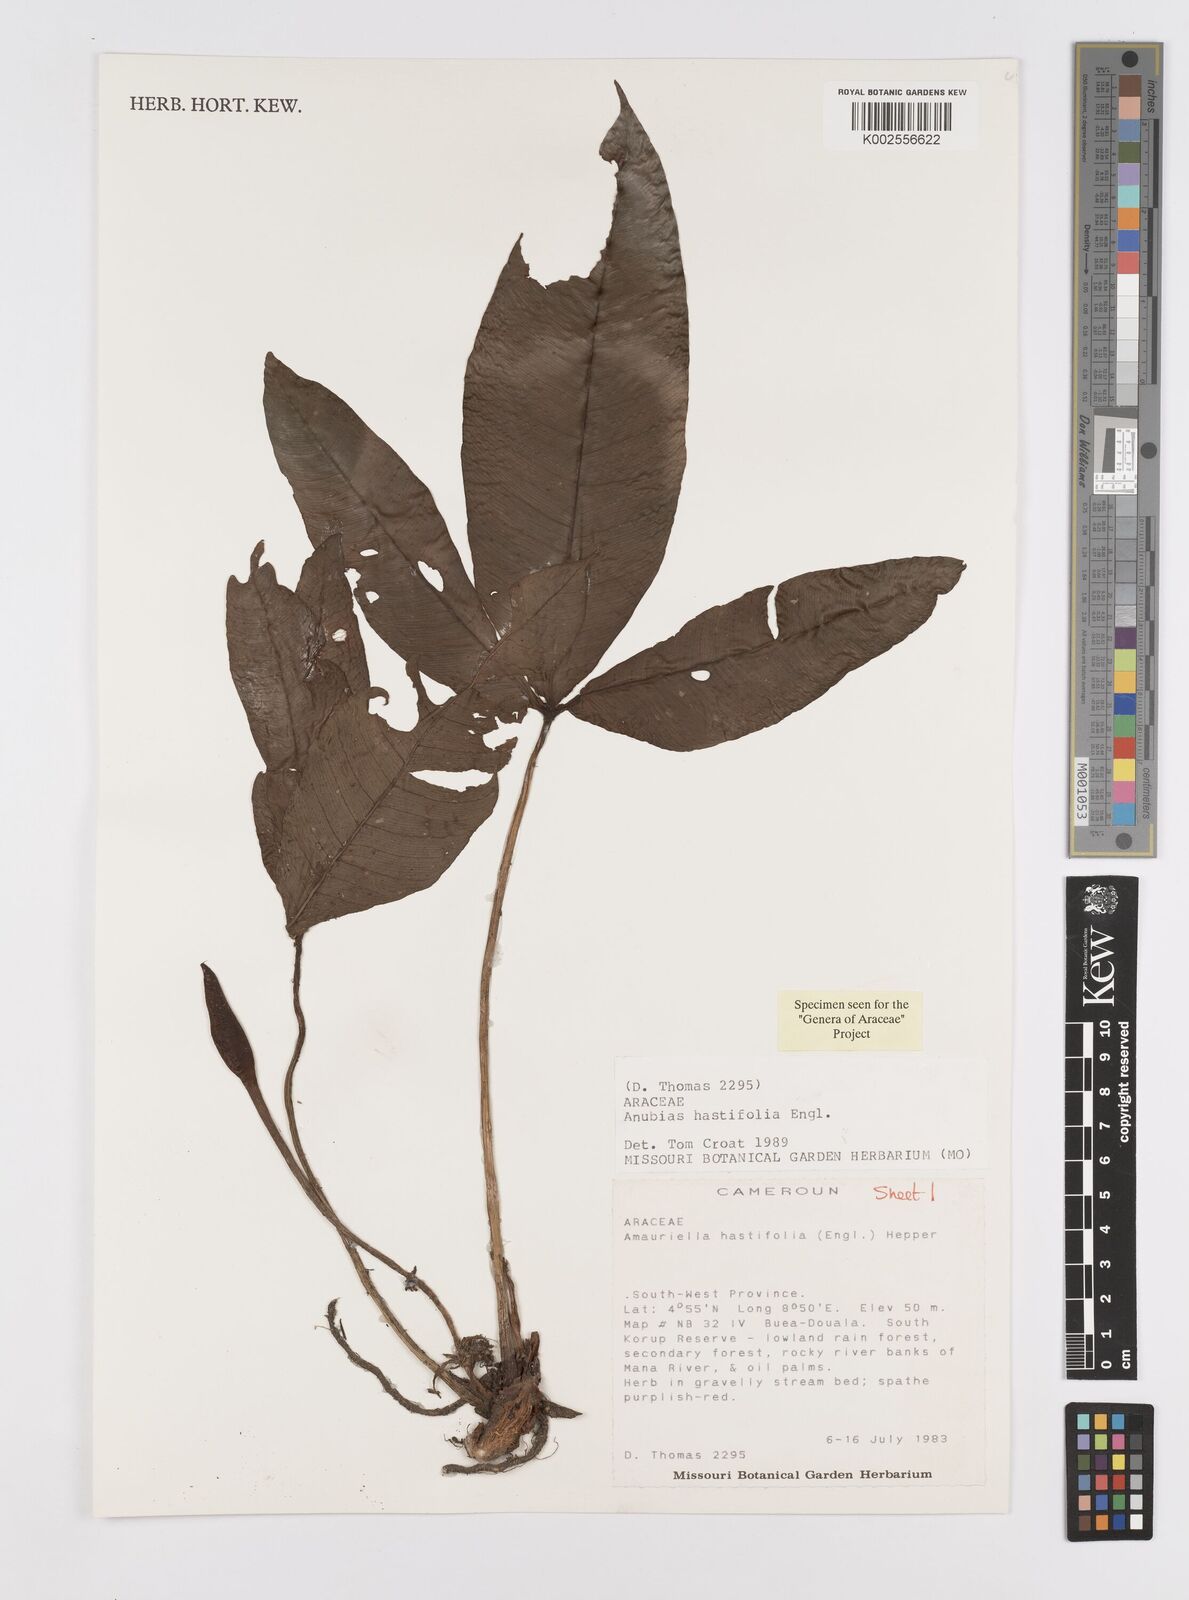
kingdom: Plantae
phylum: Tracheophyta
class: Liliopsida
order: Alismatales
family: Araceae
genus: Anubias
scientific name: Anubias gilletii
